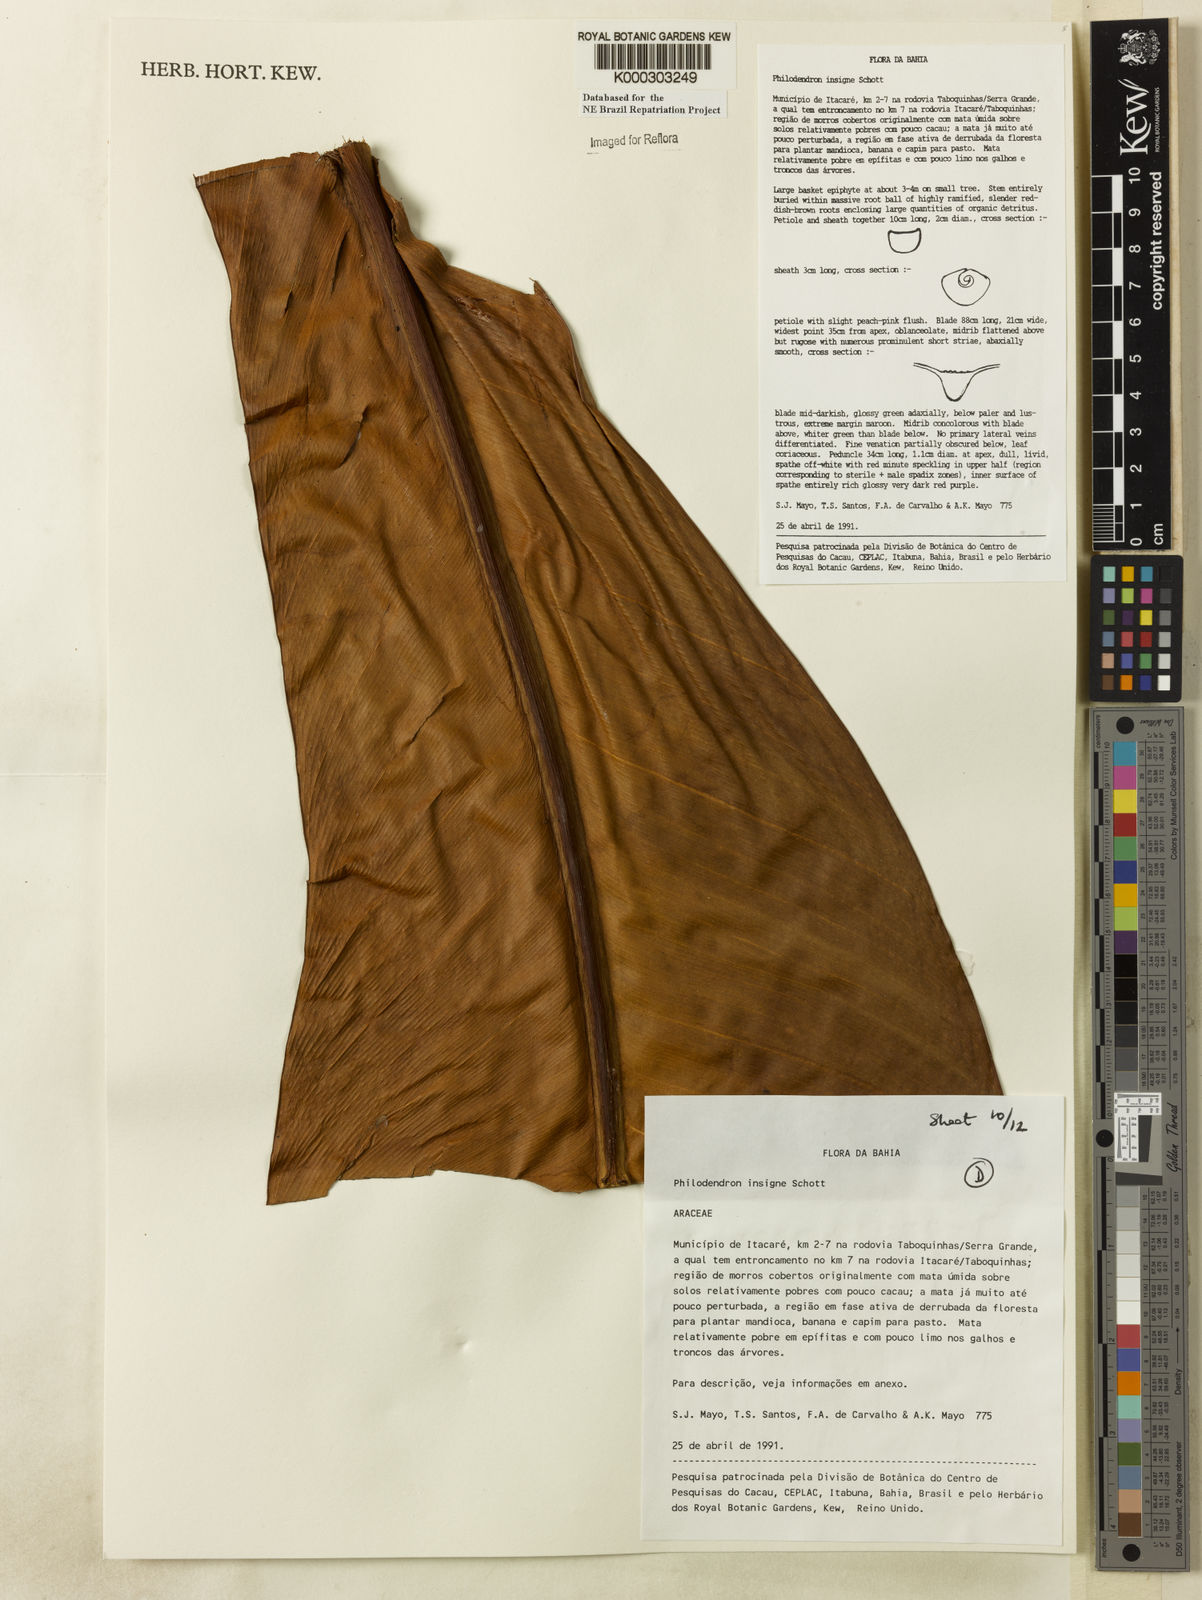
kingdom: Plantae
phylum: Tracheophyta
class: Liliopsida
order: Alismatales
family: Araceae
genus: Philodendron
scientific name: Philodendron insigne
